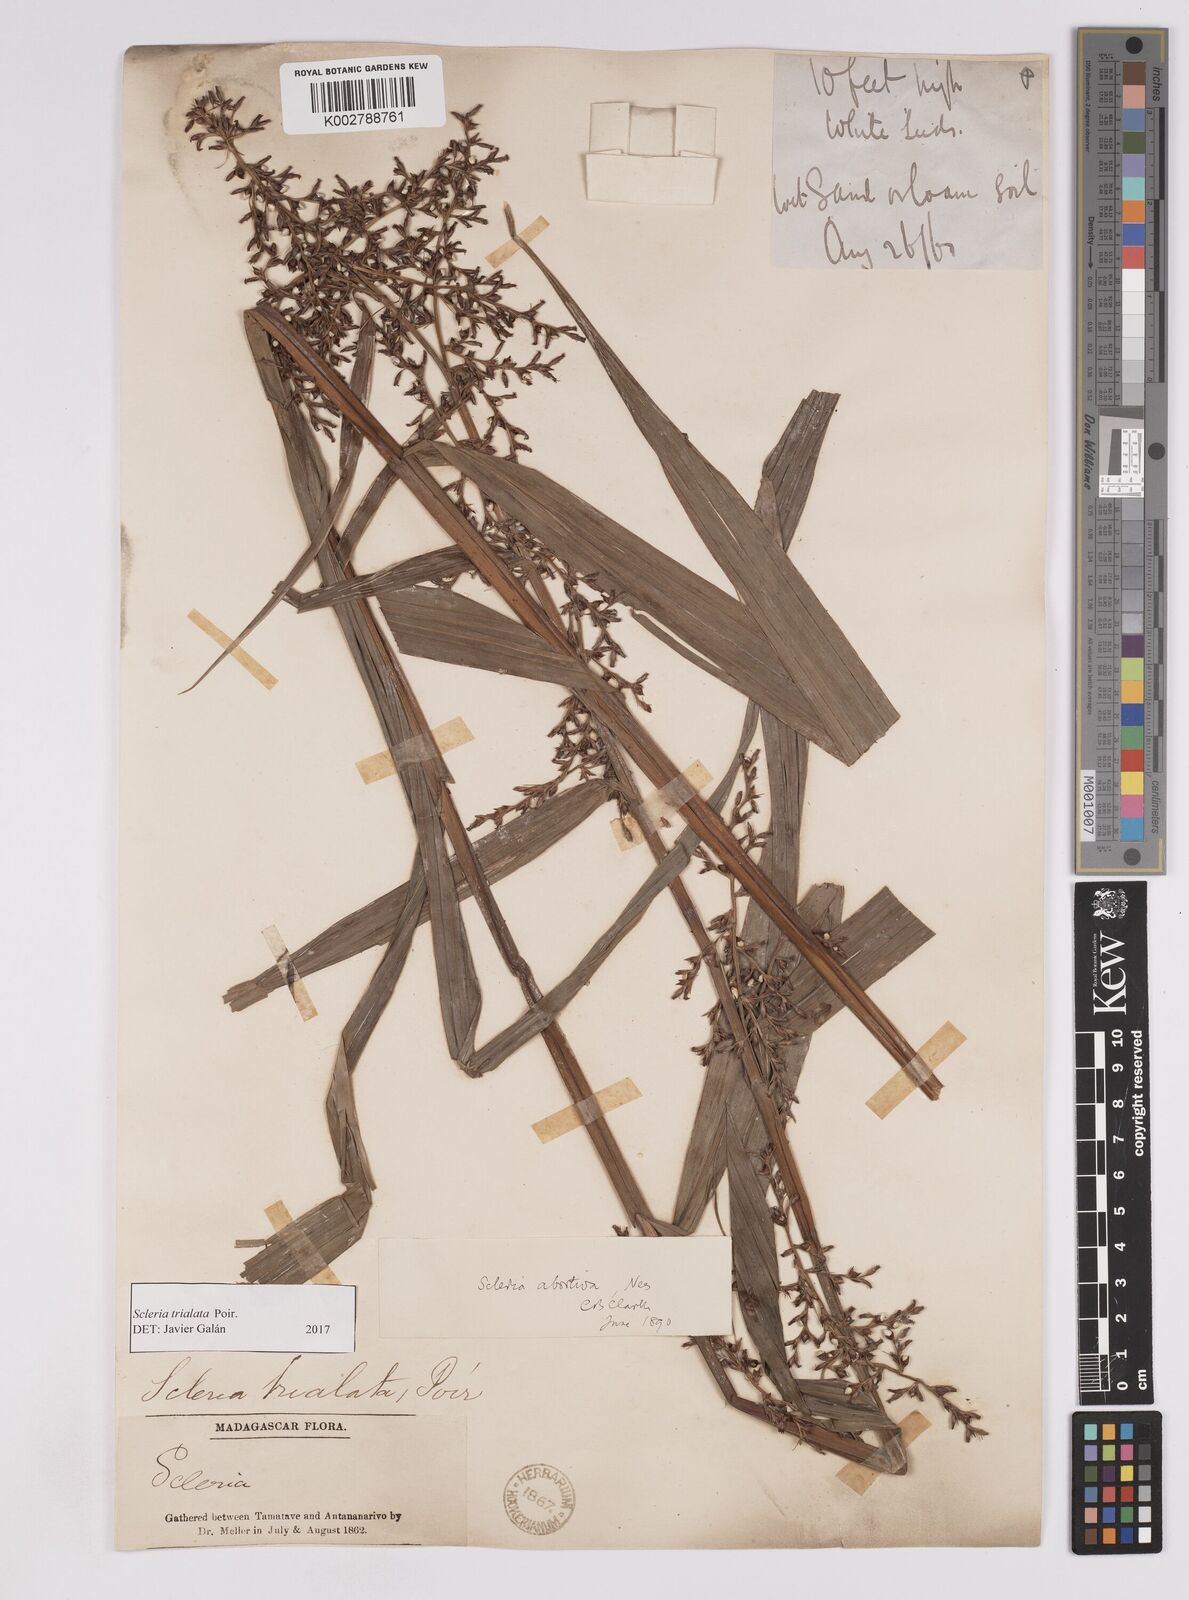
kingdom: Plantae
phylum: Tracheophyta
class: Liliopsida
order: Poales
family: Cyperaceae
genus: Scleria
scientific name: Scleria trialata
